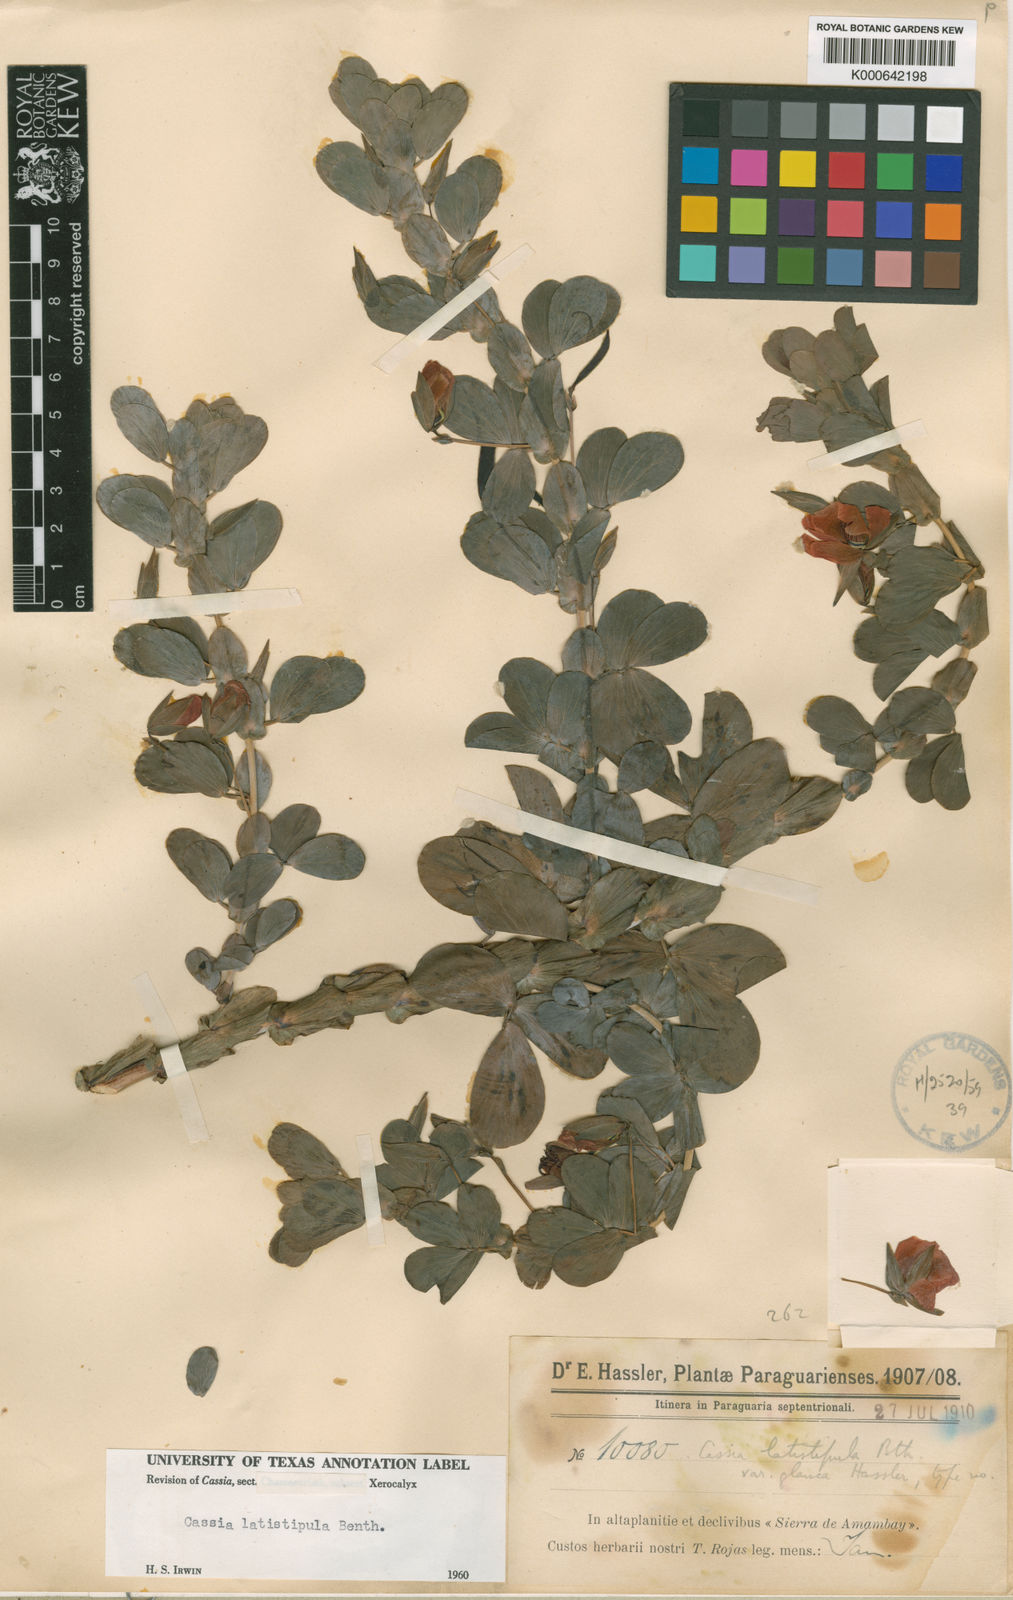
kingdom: Plantae
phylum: Tracheophyta
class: Magnoliopsida
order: Fabales
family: Fabaceae
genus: Chamaecrista
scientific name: Chamaecrista desvauxii
